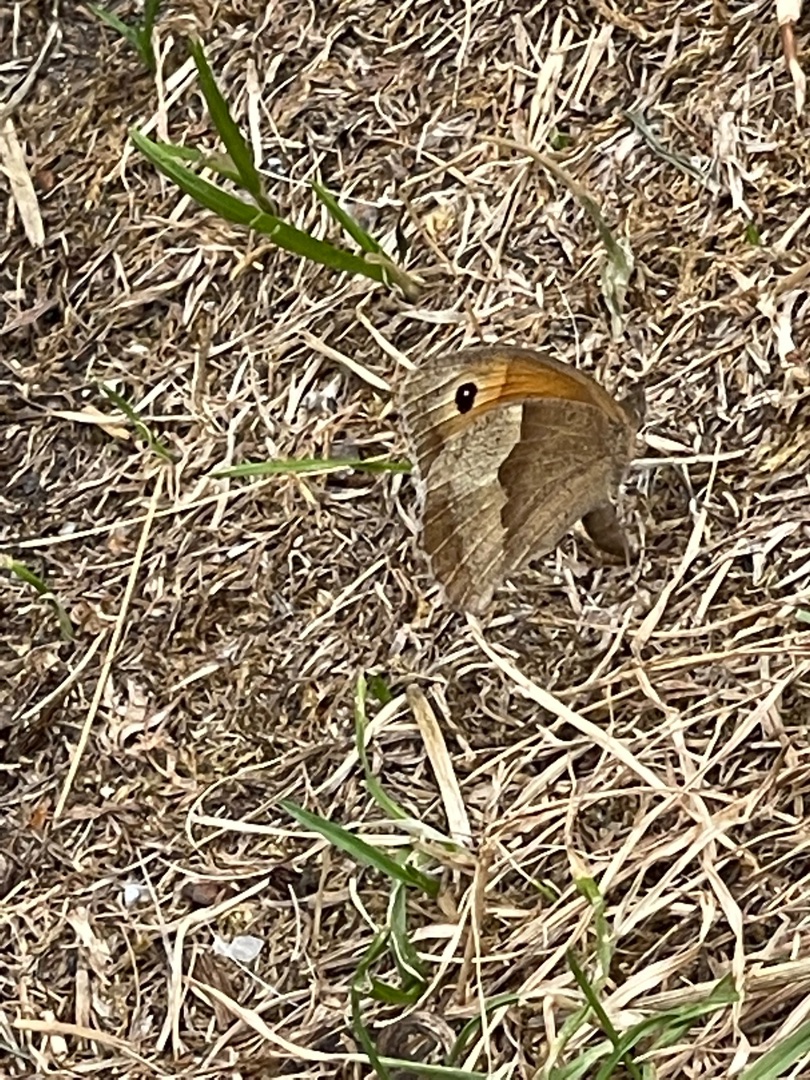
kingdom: Animalia
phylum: Arthropoda
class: Insecta
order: Lepidoptera
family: Nymphalidae
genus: Maniola
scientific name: Maniola jurtina
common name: Græsrandøje
